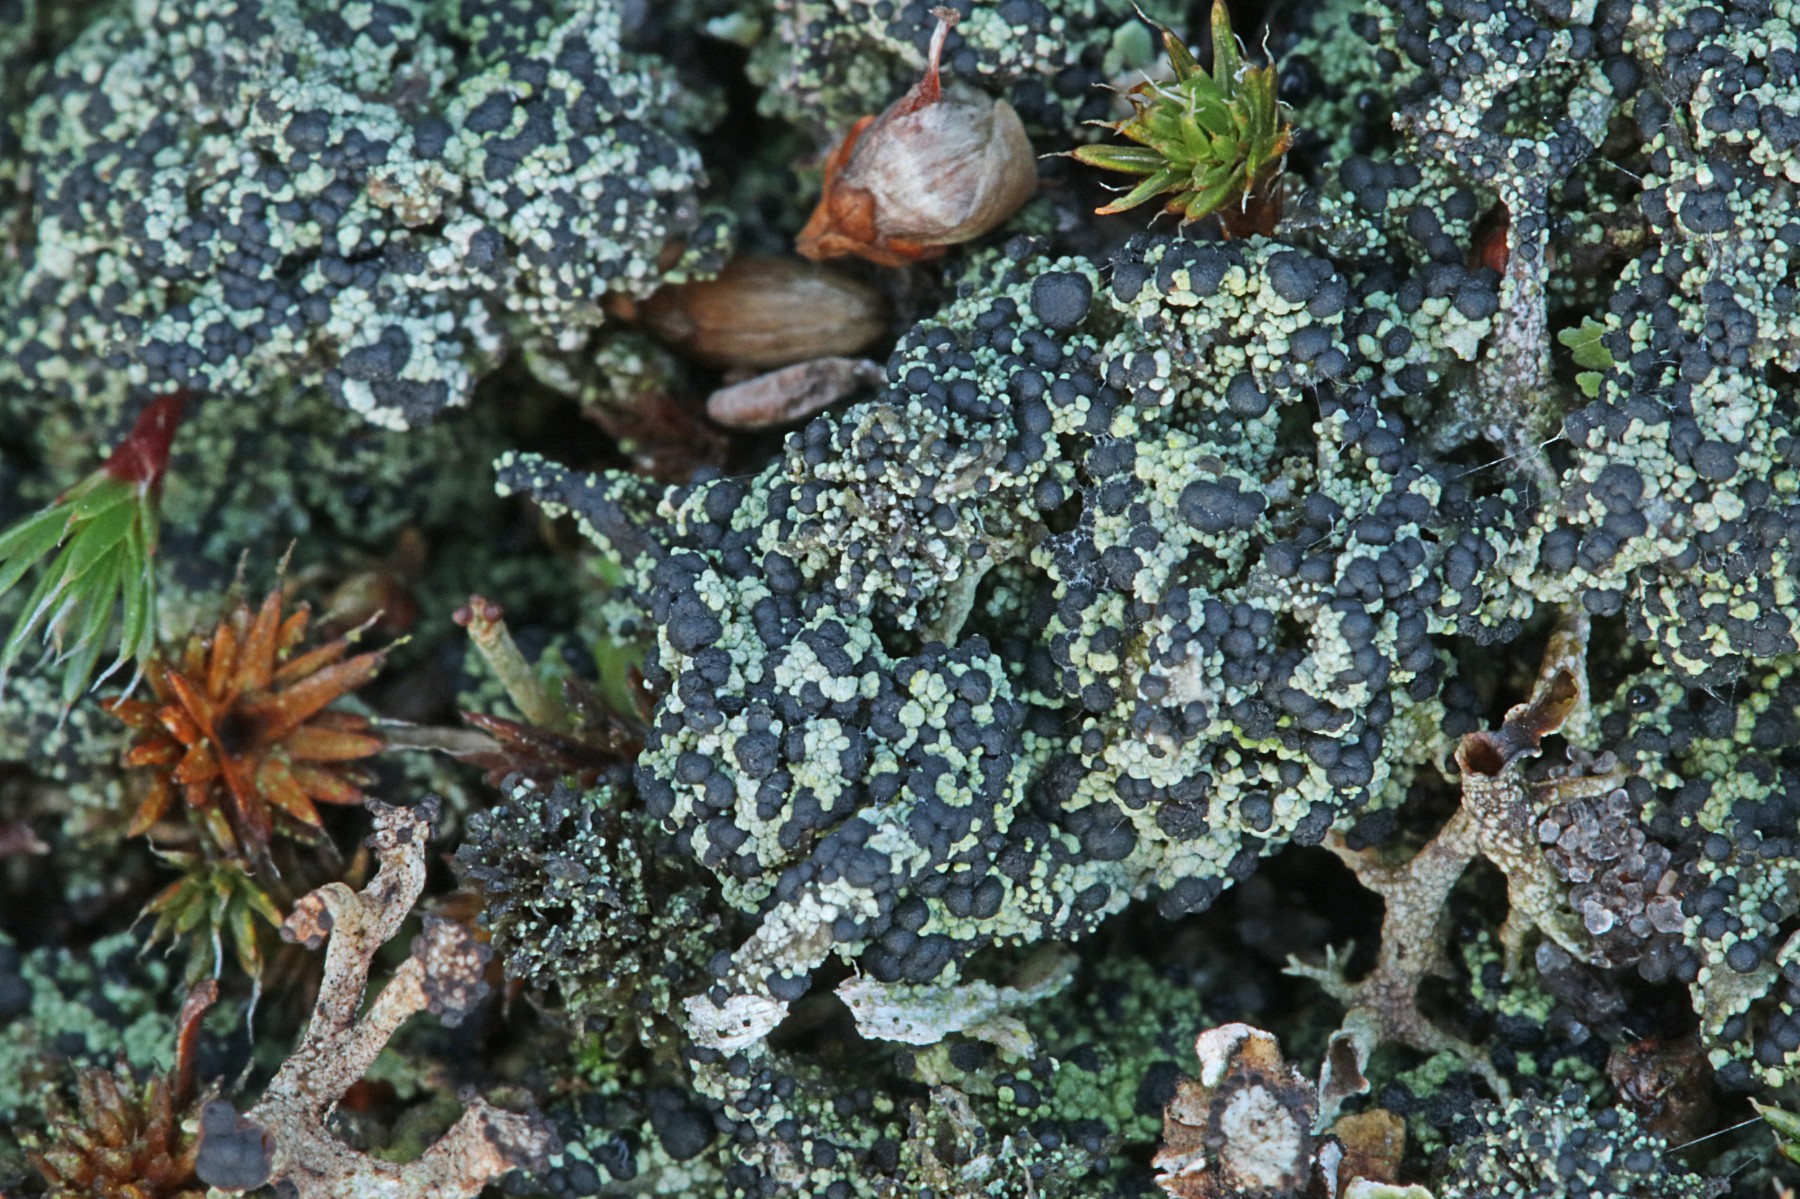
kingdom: Fungi
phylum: Ascomycota
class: Lecanoromycetes
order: Lecanorales
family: Byssolomataceae
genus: Micarea
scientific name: Micarea lignaria
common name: tørve-knaplav
